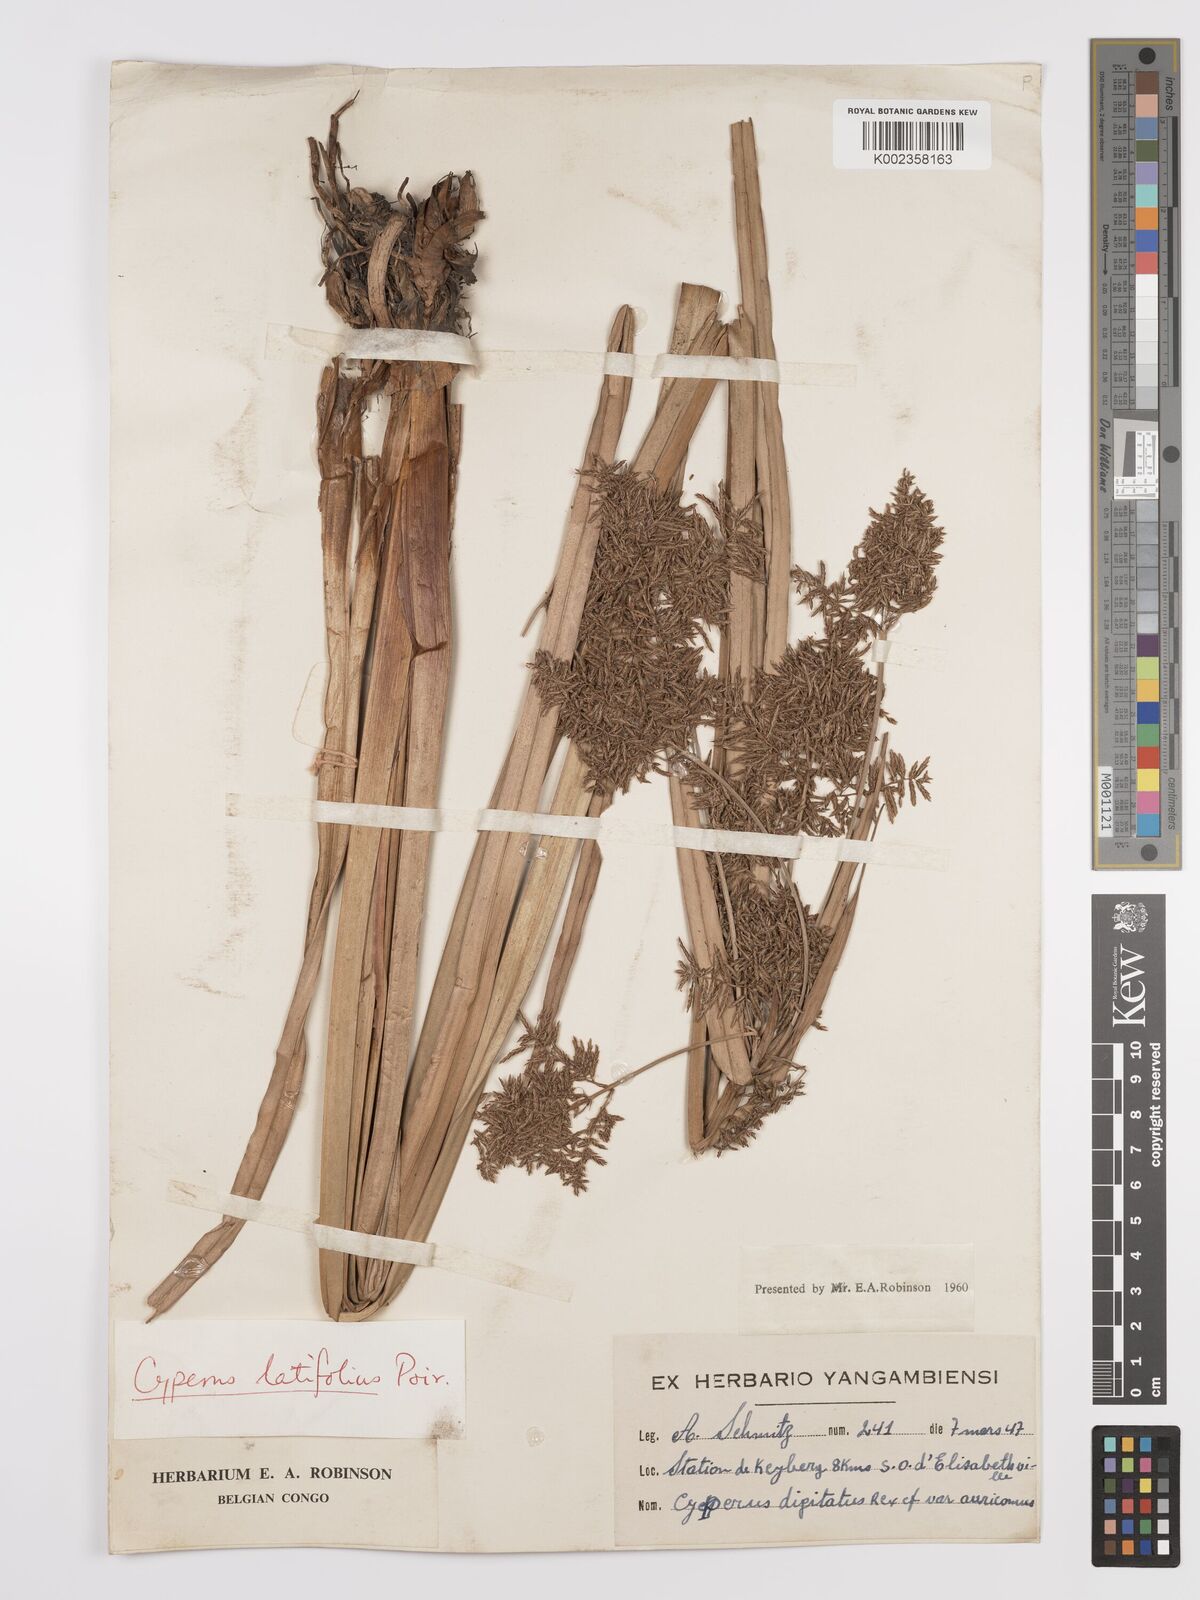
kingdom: Plantae
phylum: Tracheophyta
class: Liliopsida
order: Poales
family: Cyperaceae
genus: Cyperus
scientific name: Cyperus latifolius
